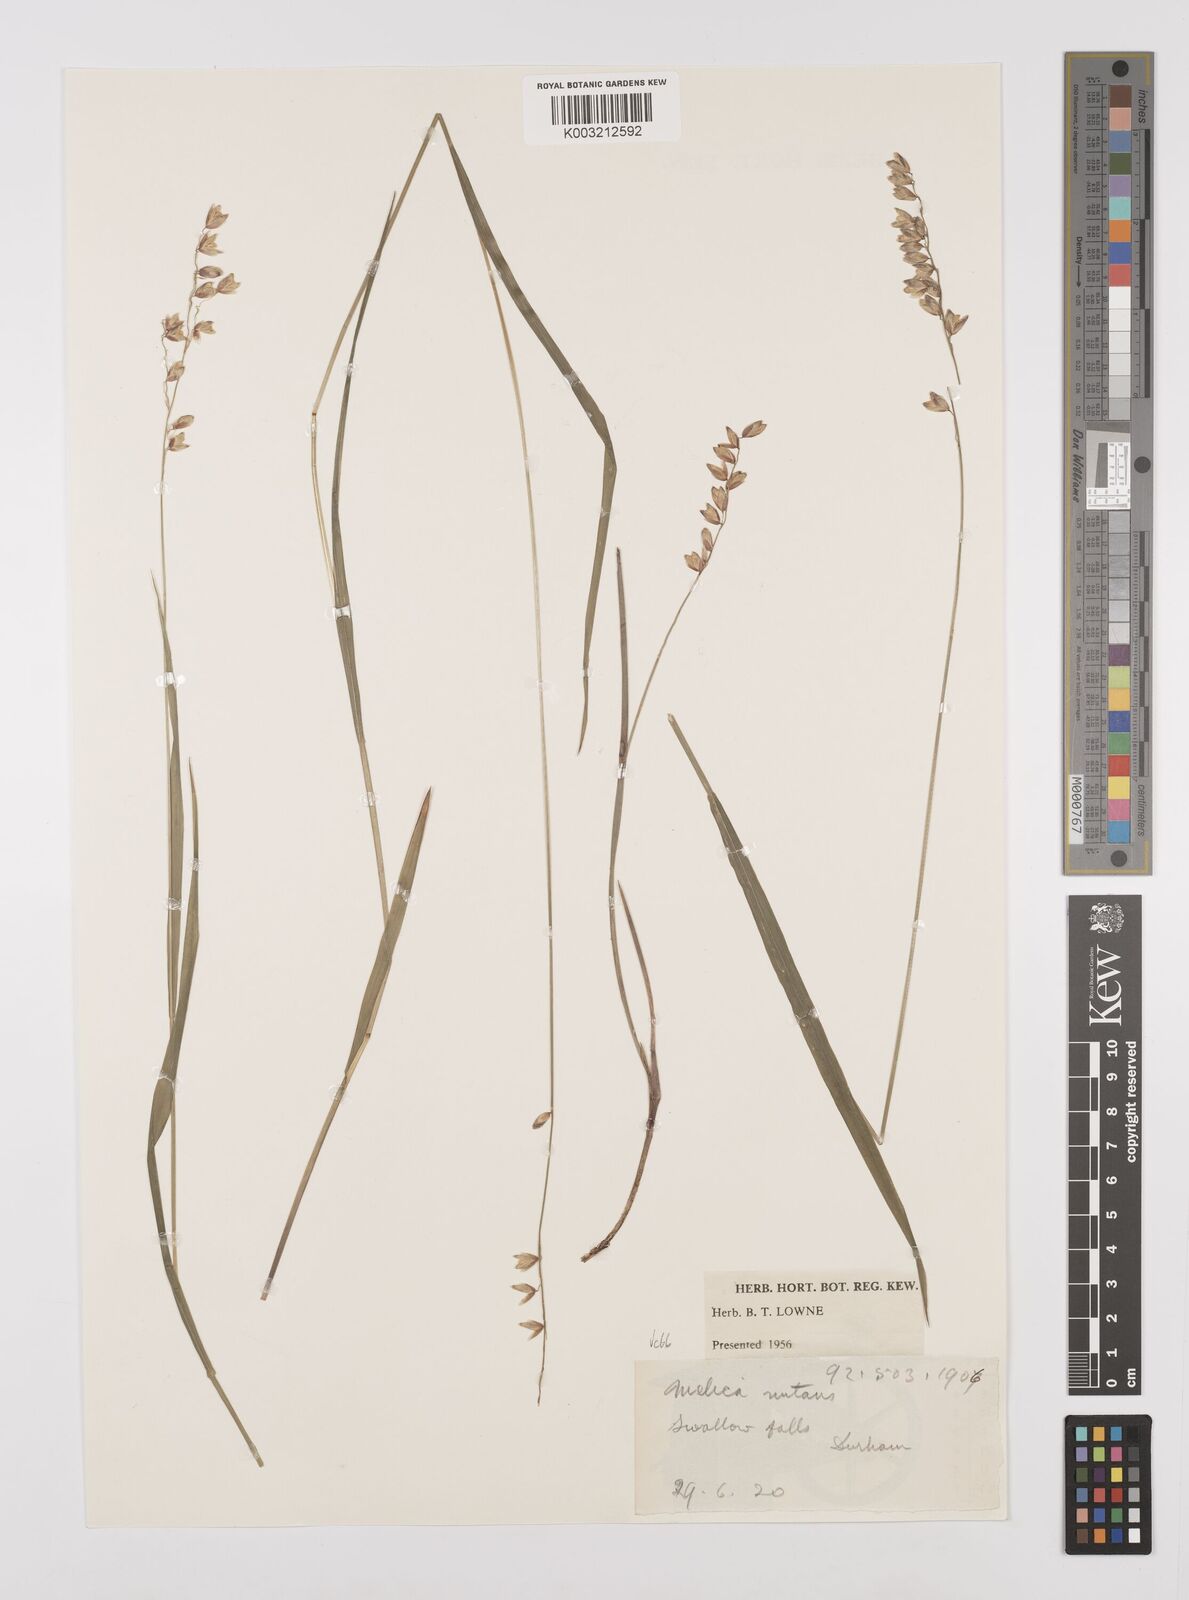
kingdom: Plantae
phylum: Tracheophyta
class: Liliopsida
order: Poales
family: Poaceae
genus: Melica
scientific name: Melica
